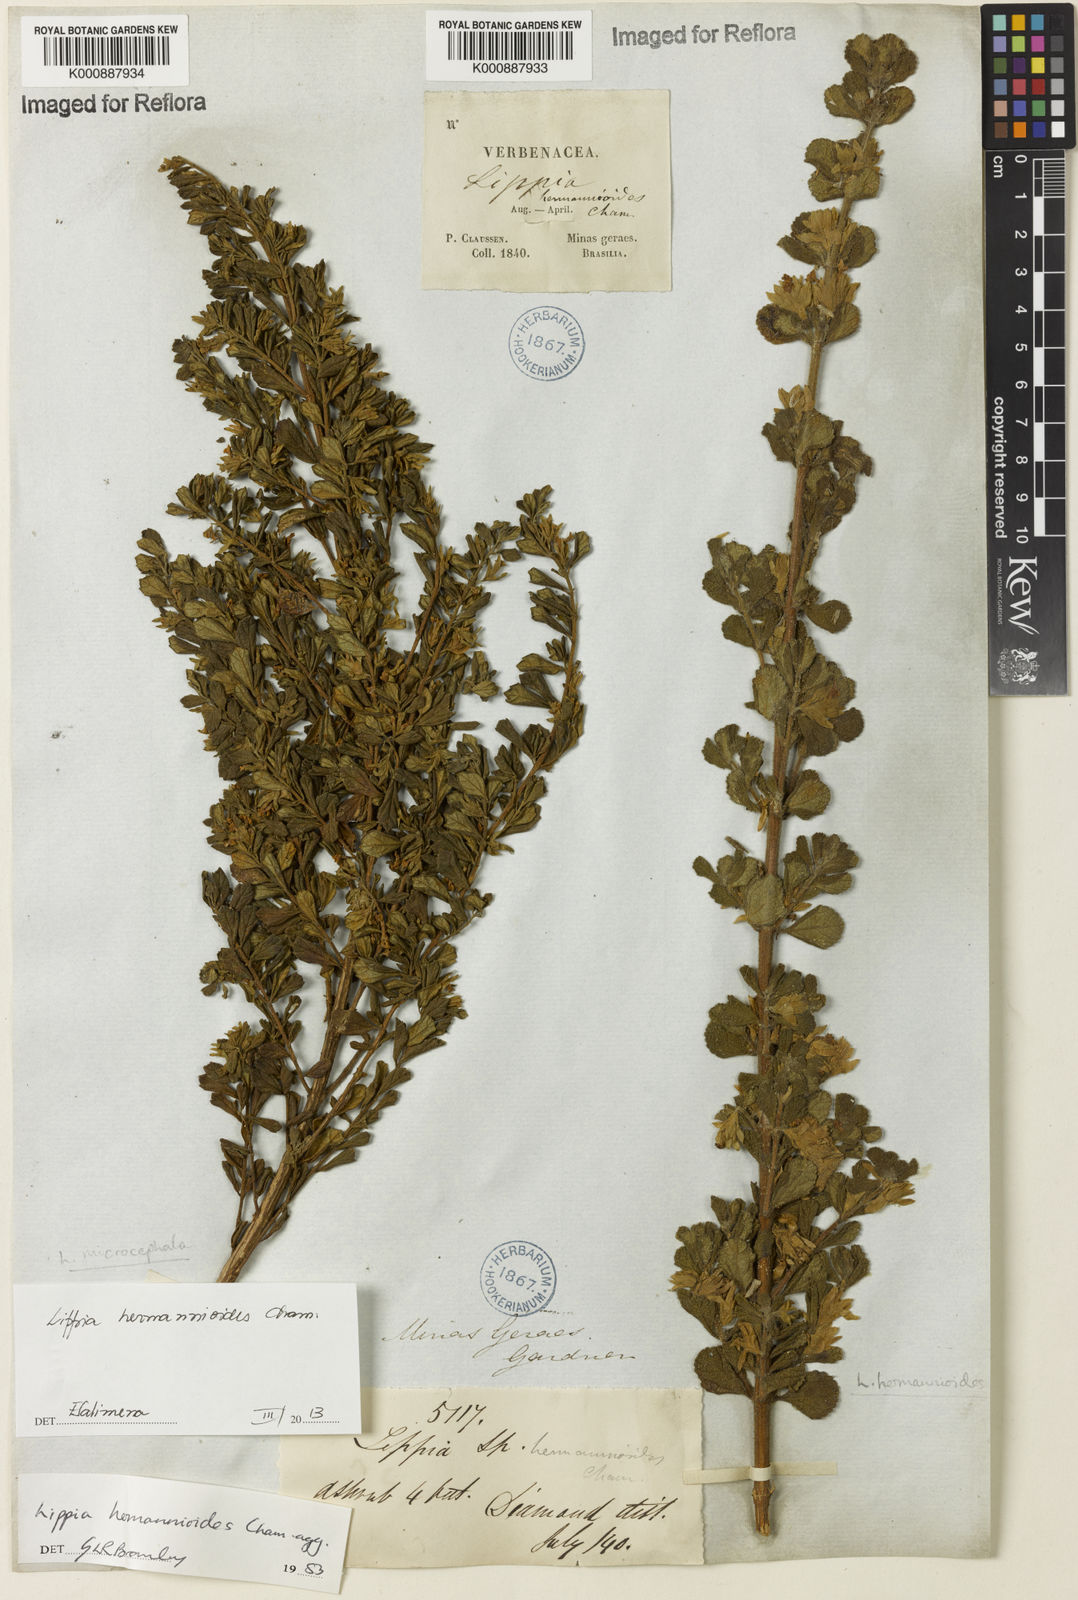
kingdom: Plantae
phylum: Tracheophyta
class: Magnoliopsida
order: Lamiales
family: Verbenaceae
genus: Lippia
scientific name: Lippia hermannioides
